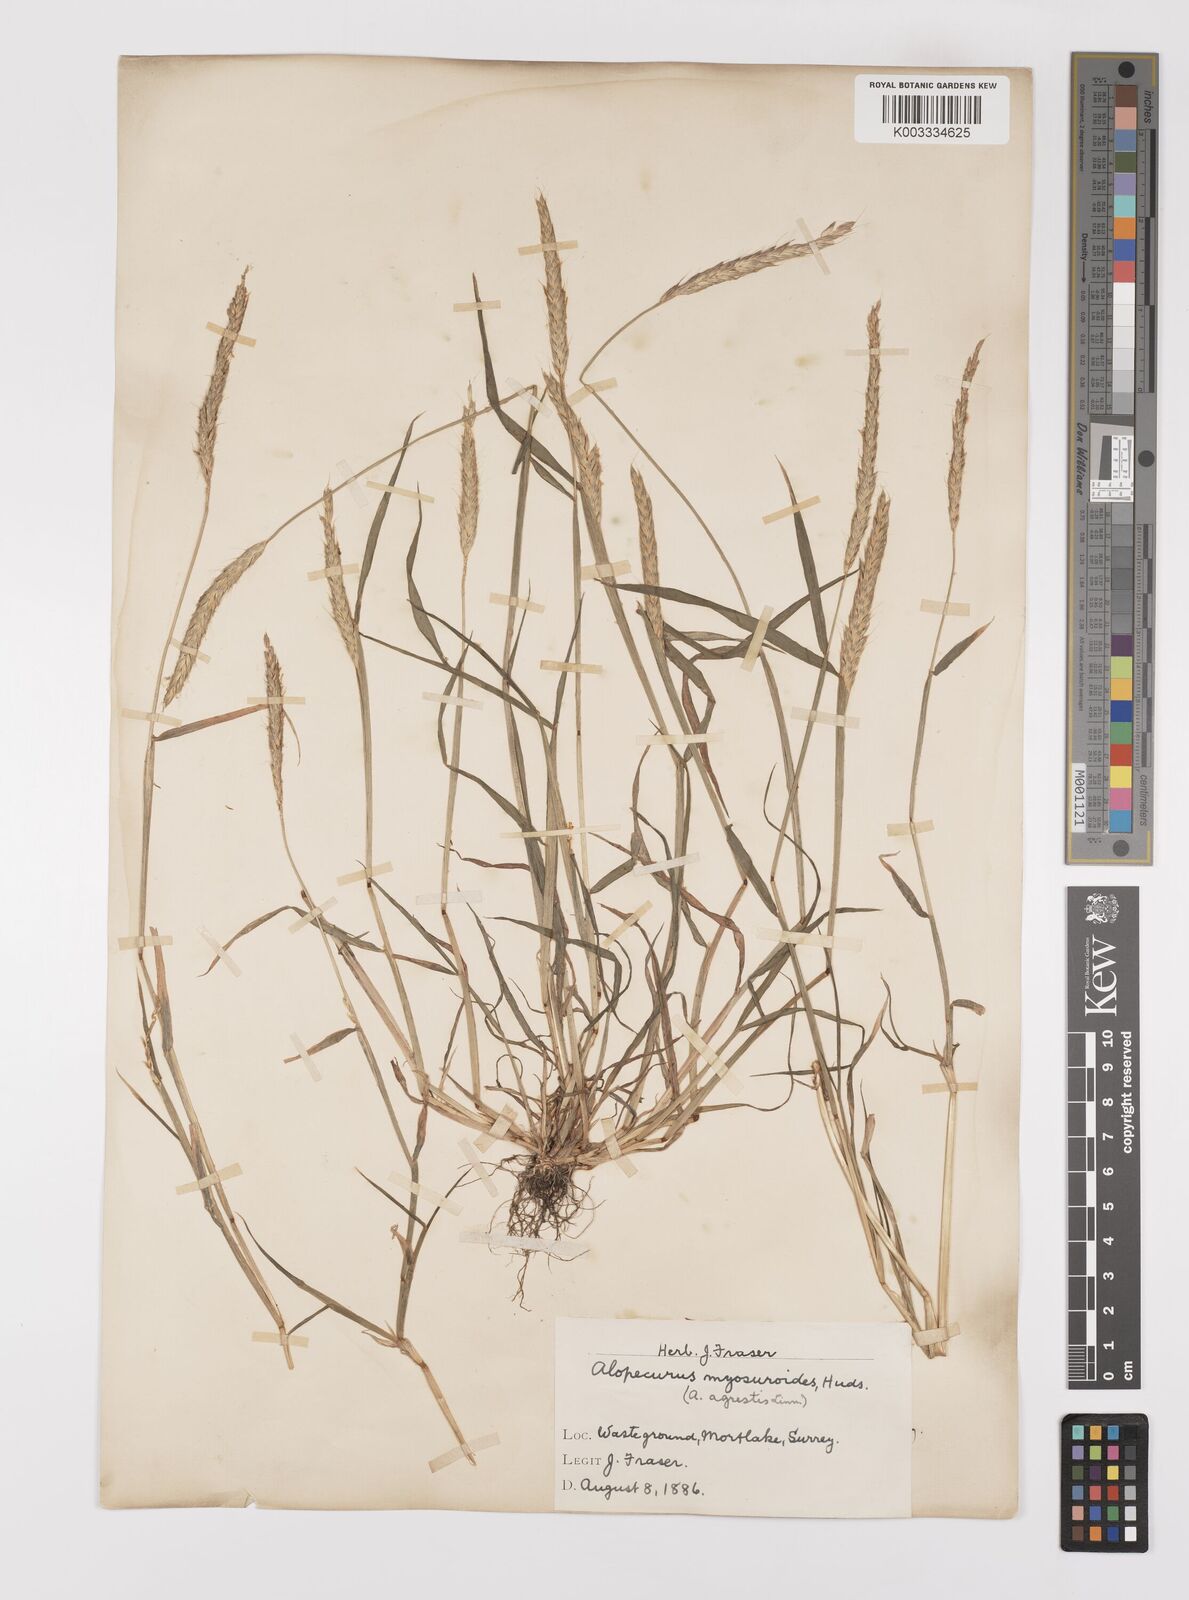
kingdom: Plantae
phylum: Tracheophyta
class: Liliopsida
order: Poales
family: Poaceae
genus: Alopecurus
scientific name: Alopecurus myosuroides
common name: Black-grass
